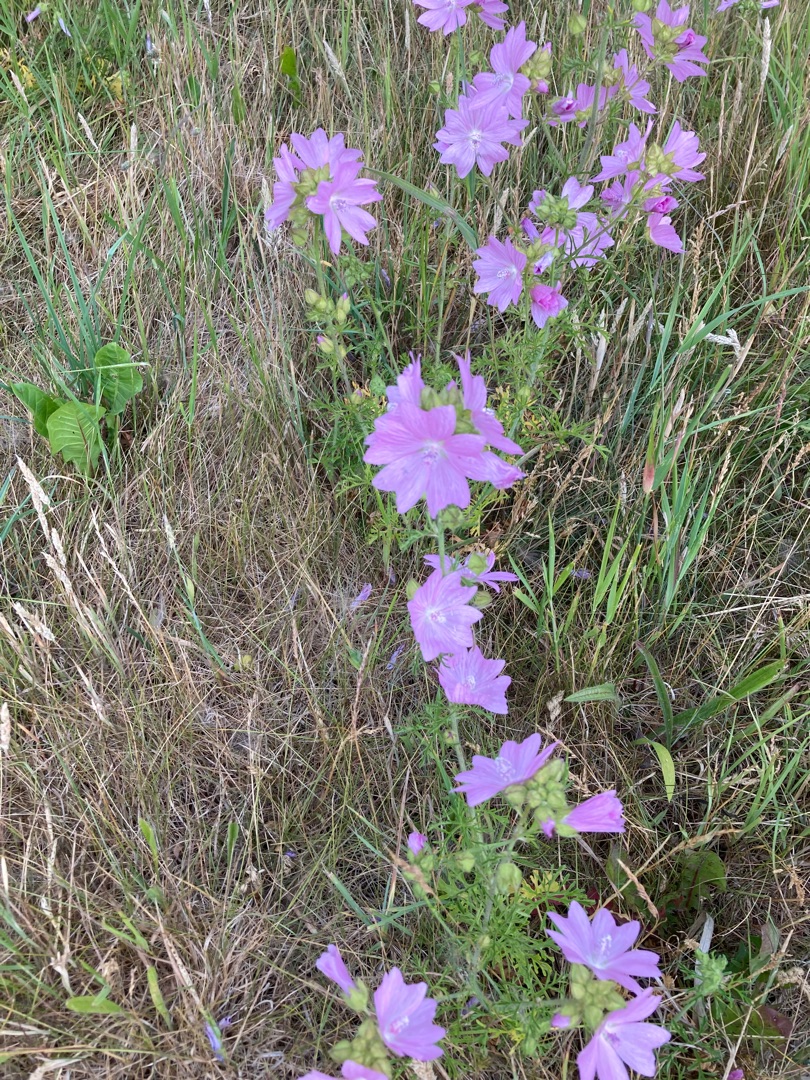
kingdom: Plantae
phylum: Tracheophyta
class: Magnoliopsida
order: Malvales
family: Malvaceae
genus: Malva
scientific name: Malva moschata
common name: Moskus-katost
